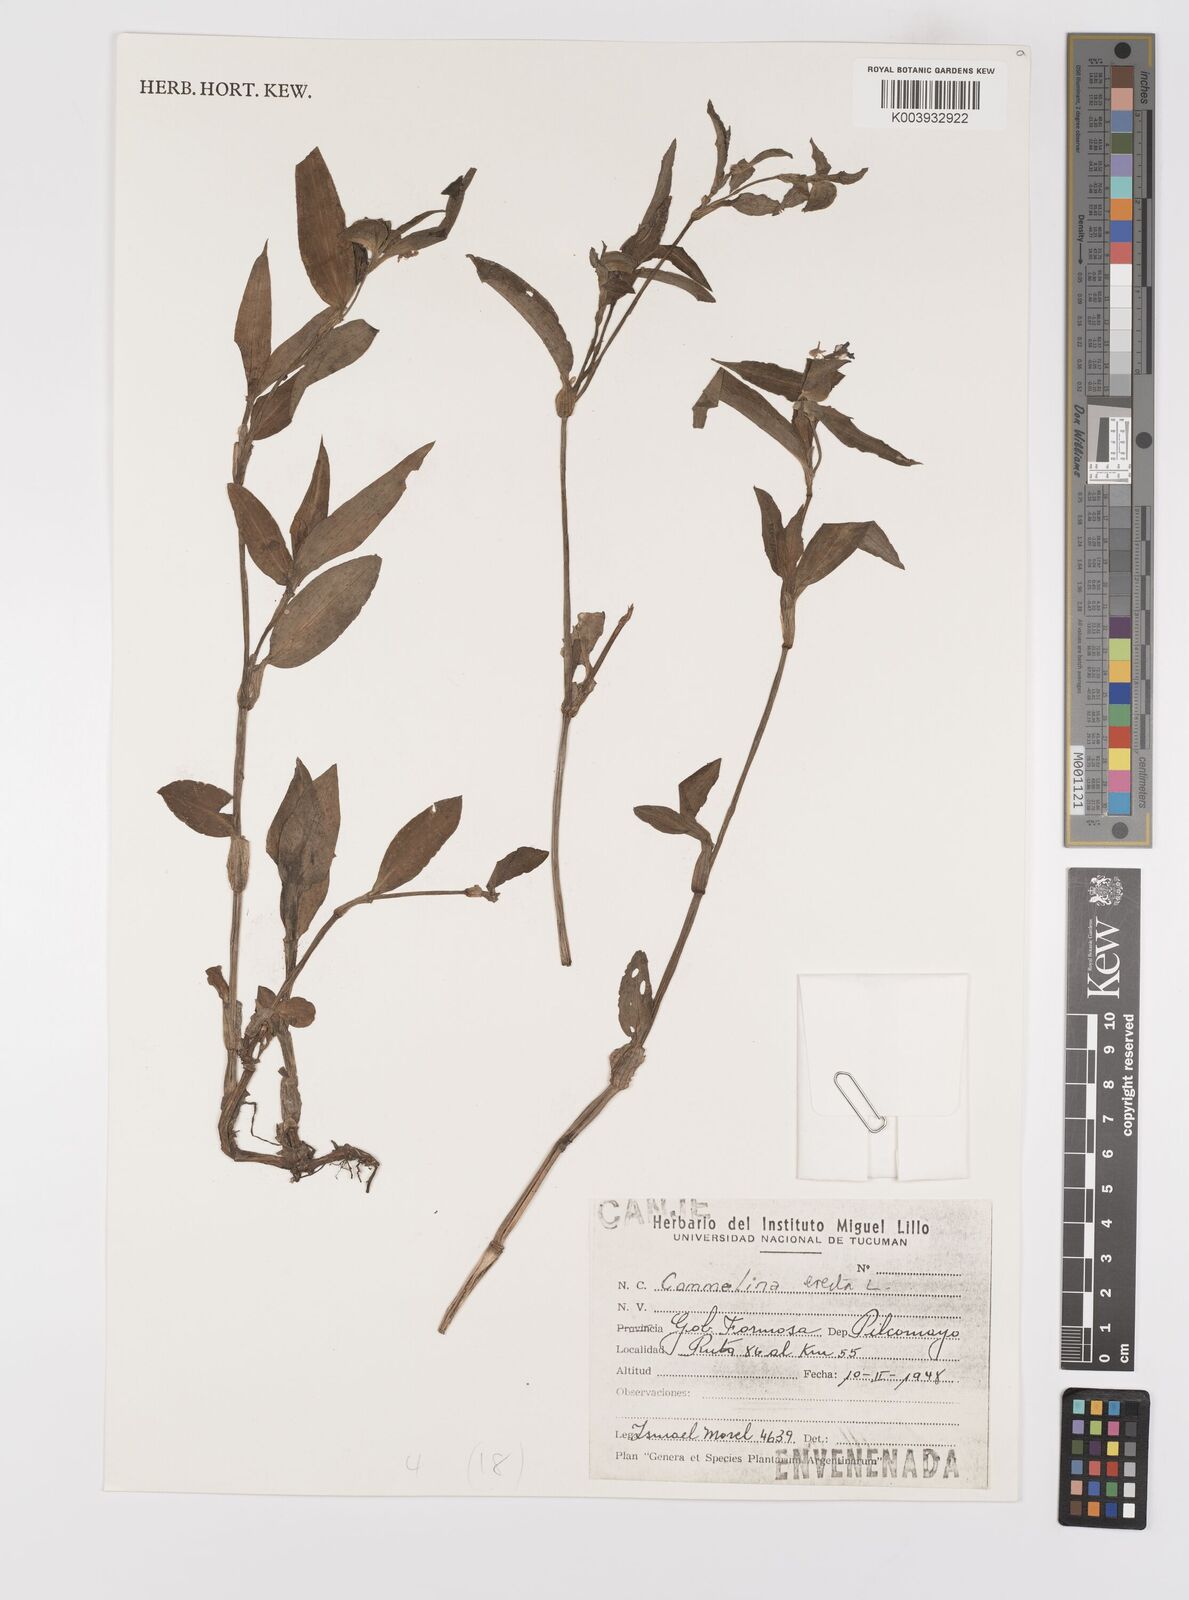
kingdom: Plantae
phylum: Tracheophyta
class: Liliopsida
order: Commelinales
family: Commelinaceae
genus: Commelina
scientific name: Commelina erecta
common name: Blousel blommetjie
